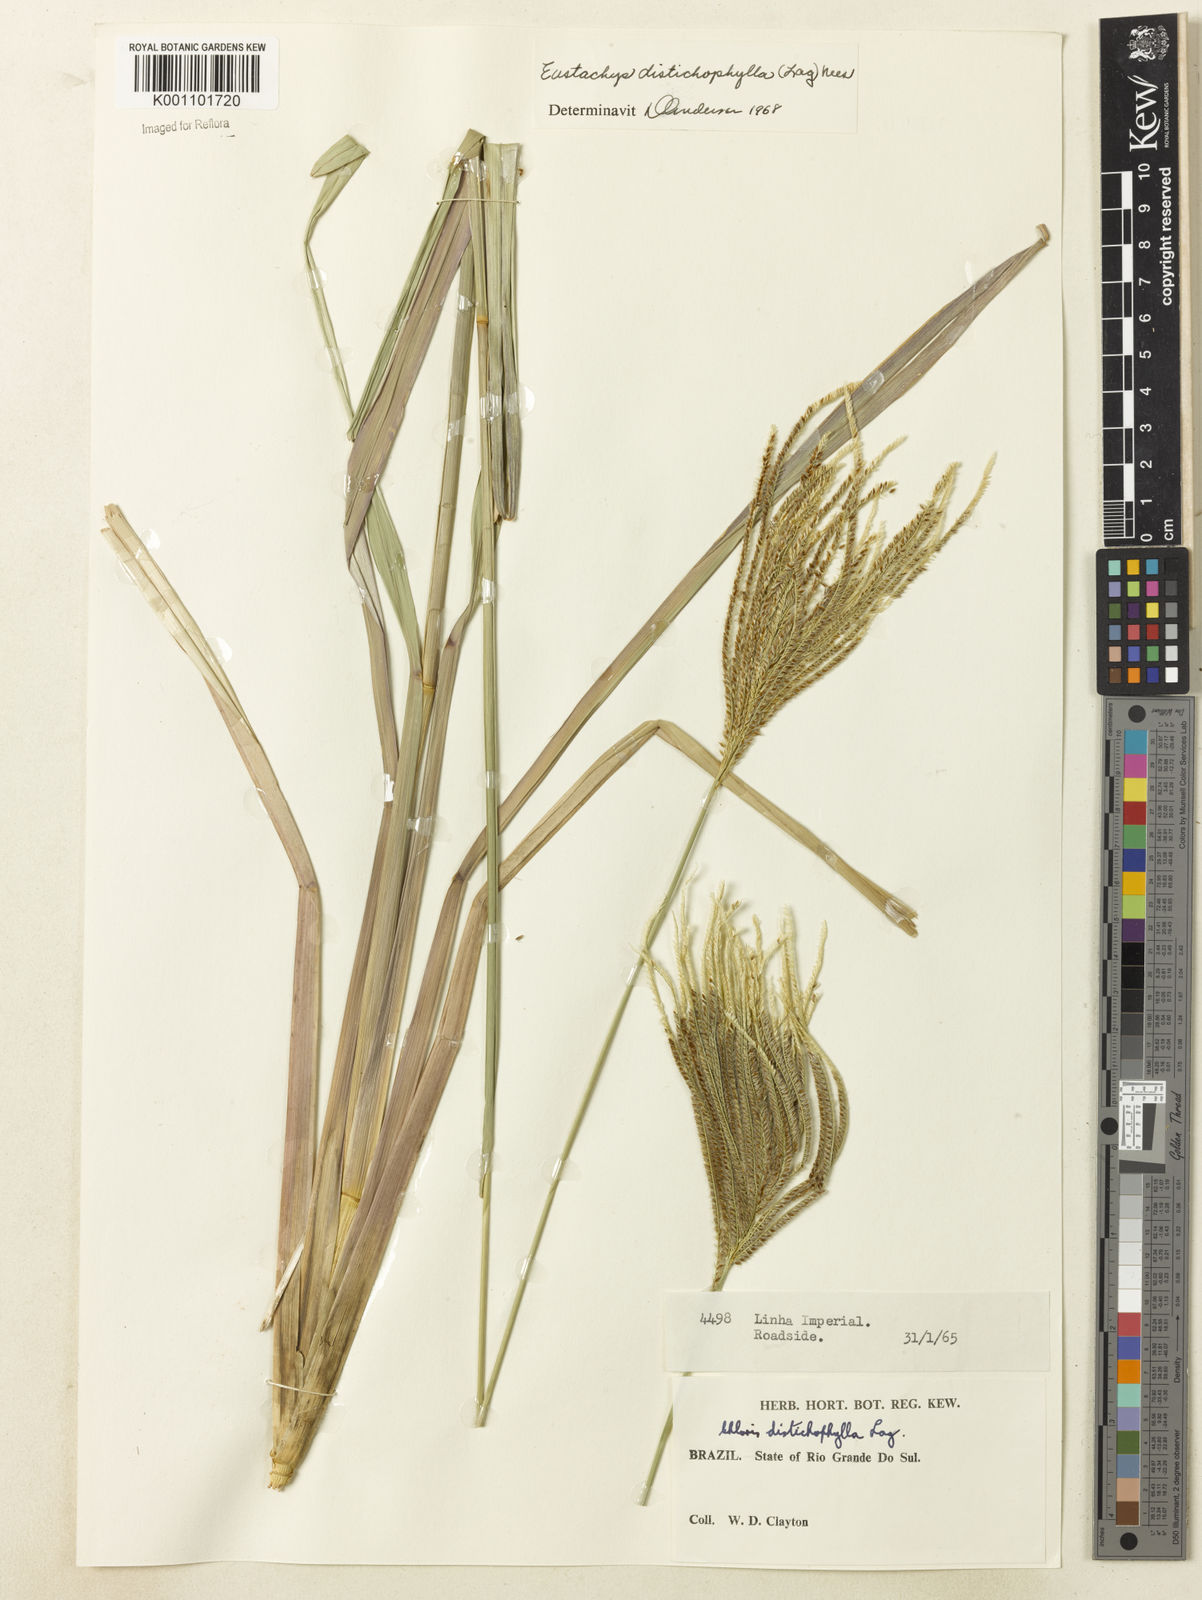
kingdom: Plantae
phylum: Tracheophyta
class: Liliopsida
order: Poales
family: Poaceae
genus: Eustachys
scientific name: Eustachys distichophylla
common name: Weeping fingergrass
